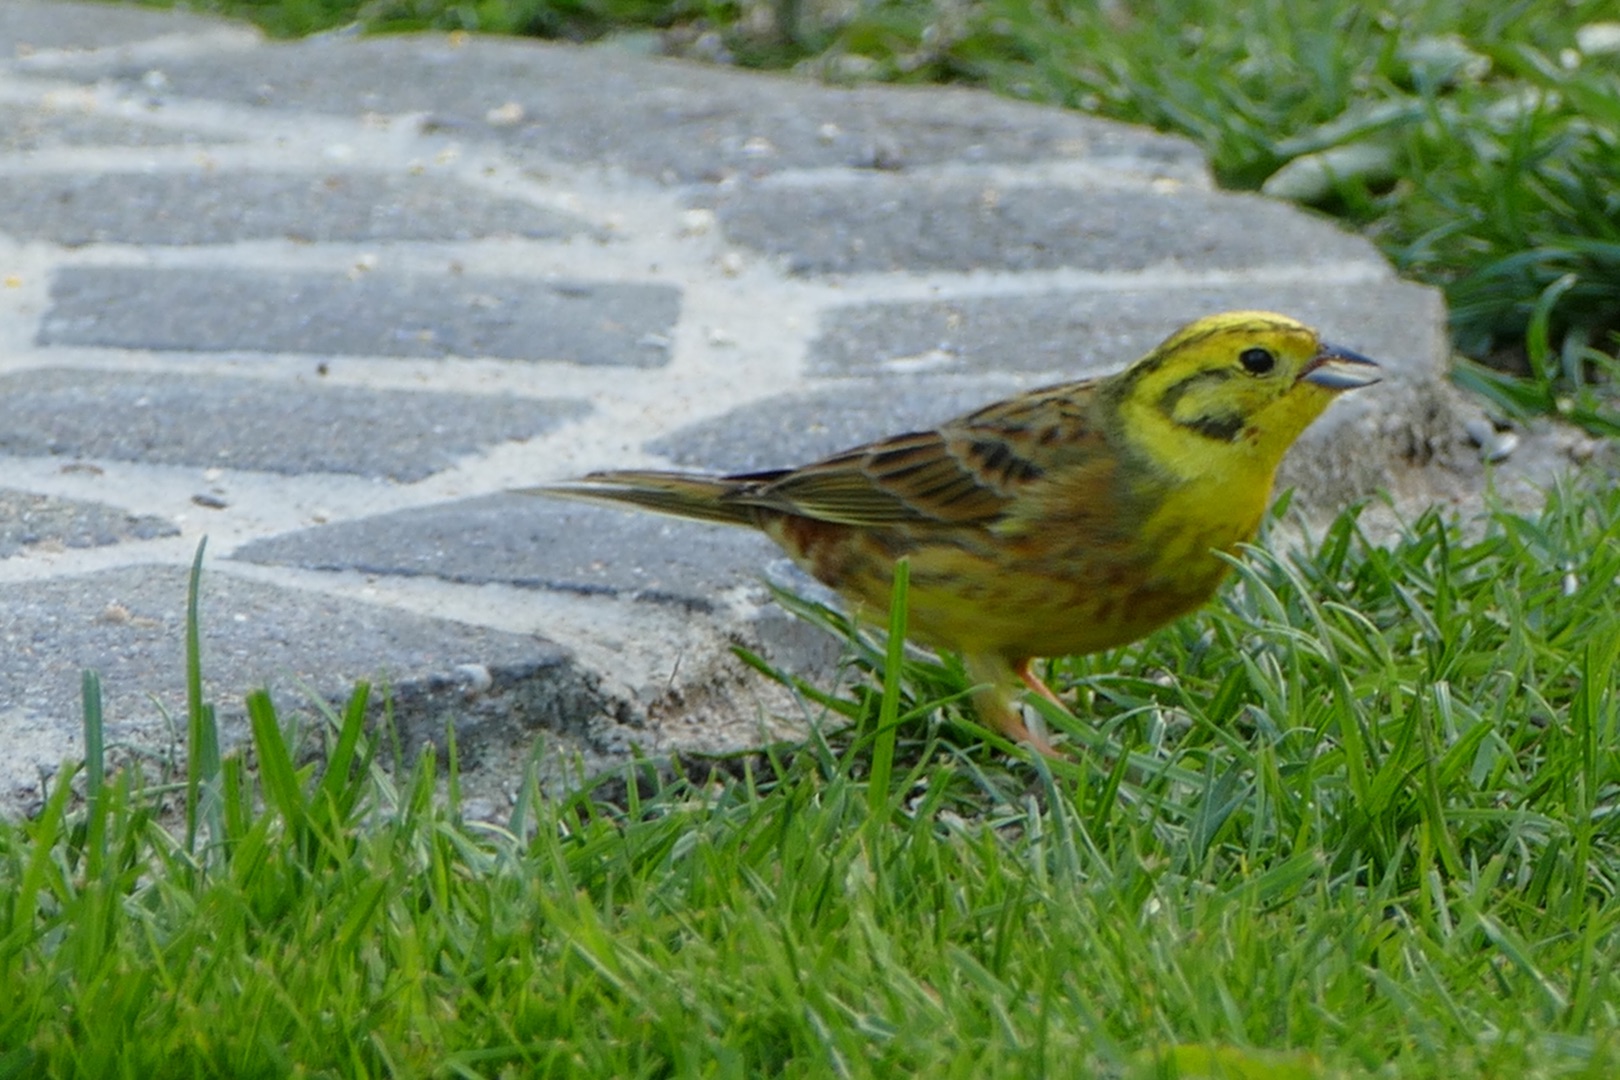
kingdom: Animalia
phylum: Chordata
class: Aves
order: Passeriformes
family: Emberizidae
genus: Emberiza
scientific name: Emberiza citrinella
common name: Gulspurv
